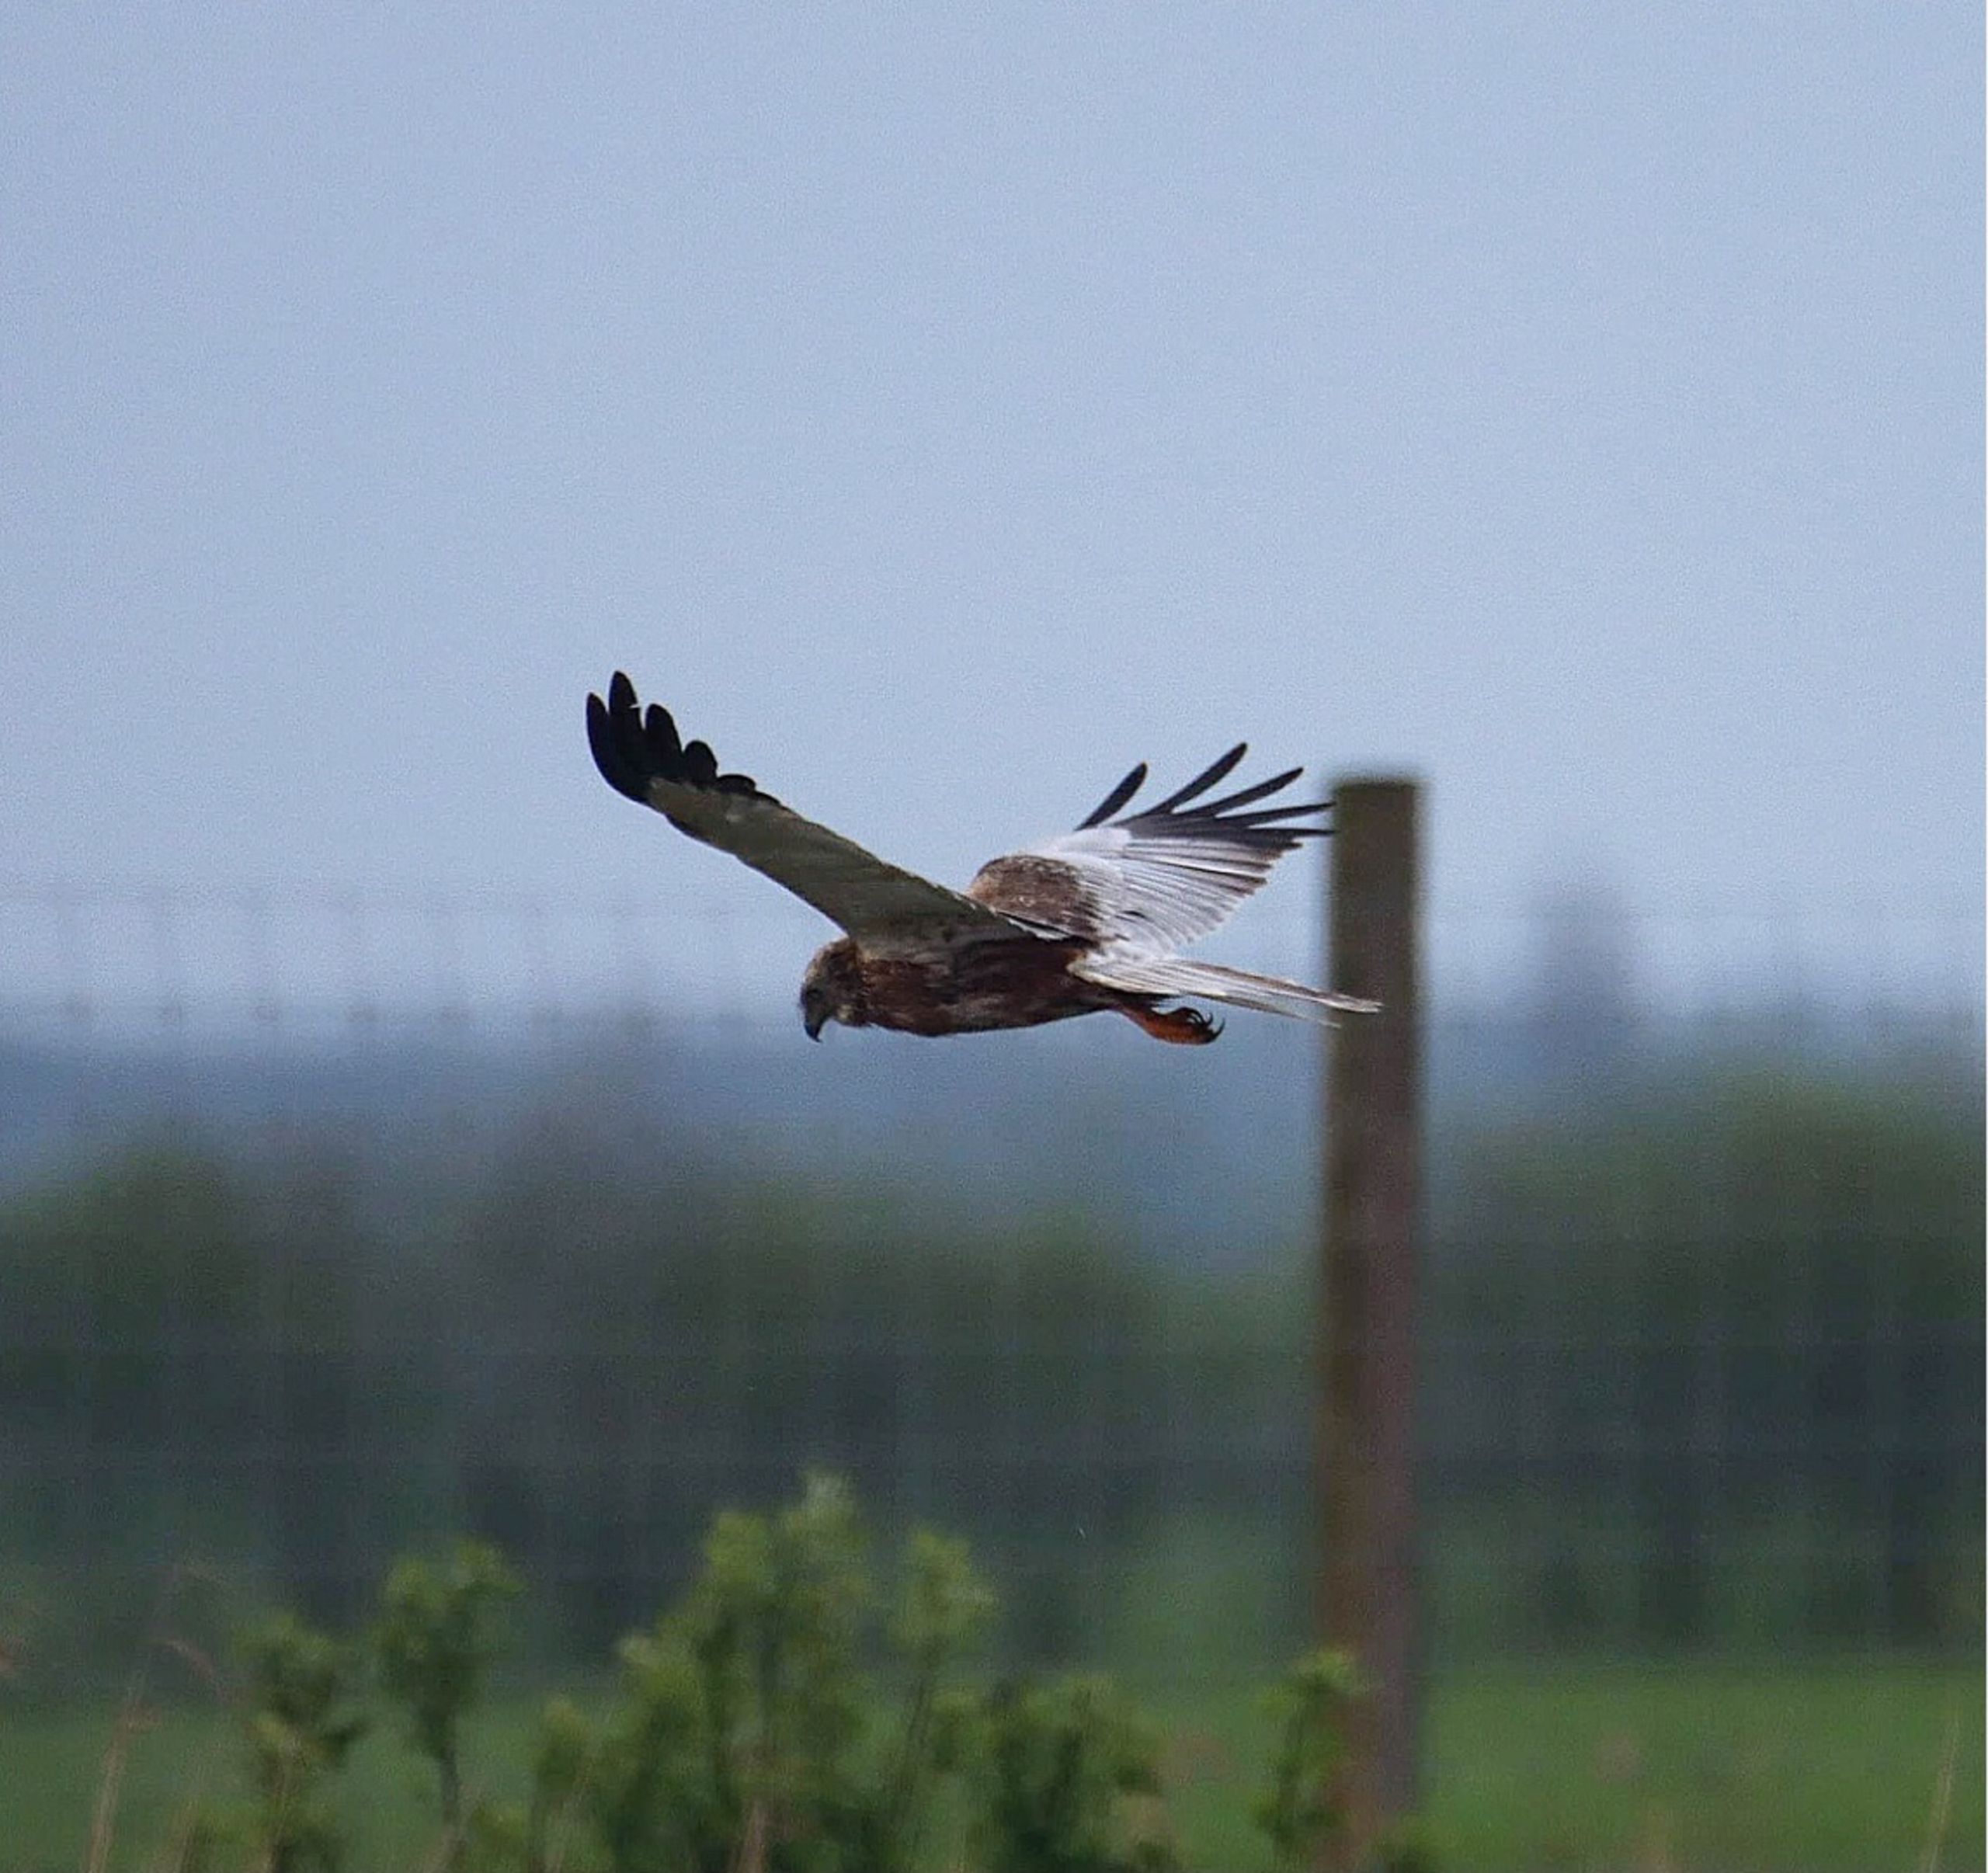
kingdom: Animalia
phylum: Chordata
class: Aves
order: Accipitriformes
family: Accipitridae
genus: Circus
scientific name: Circus aeruginosus
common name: Rørhøg
